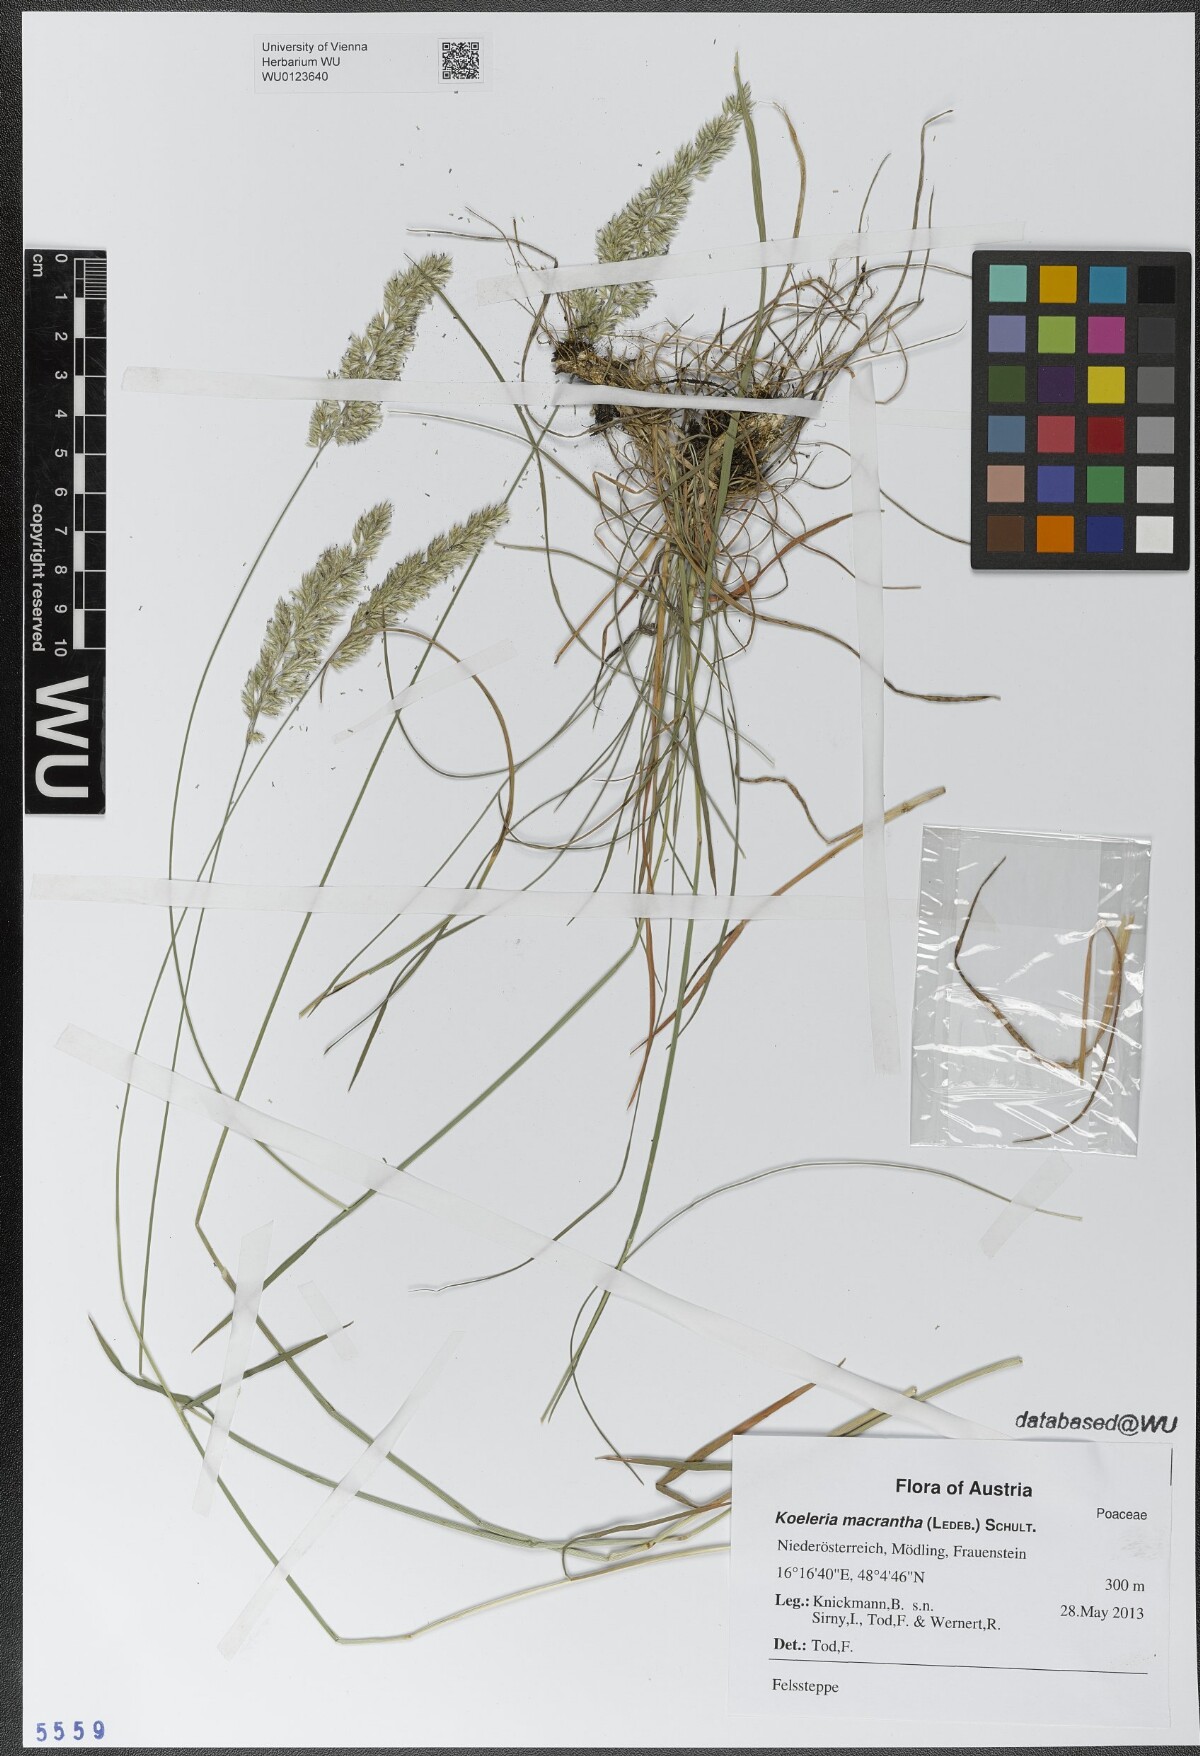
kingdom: Plantae
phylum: Tracheophyta
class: Liliopsida
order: Poales
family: Poaceae
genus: Koeleria
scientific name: Koeleria macrantha
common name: Crested hair-grass
